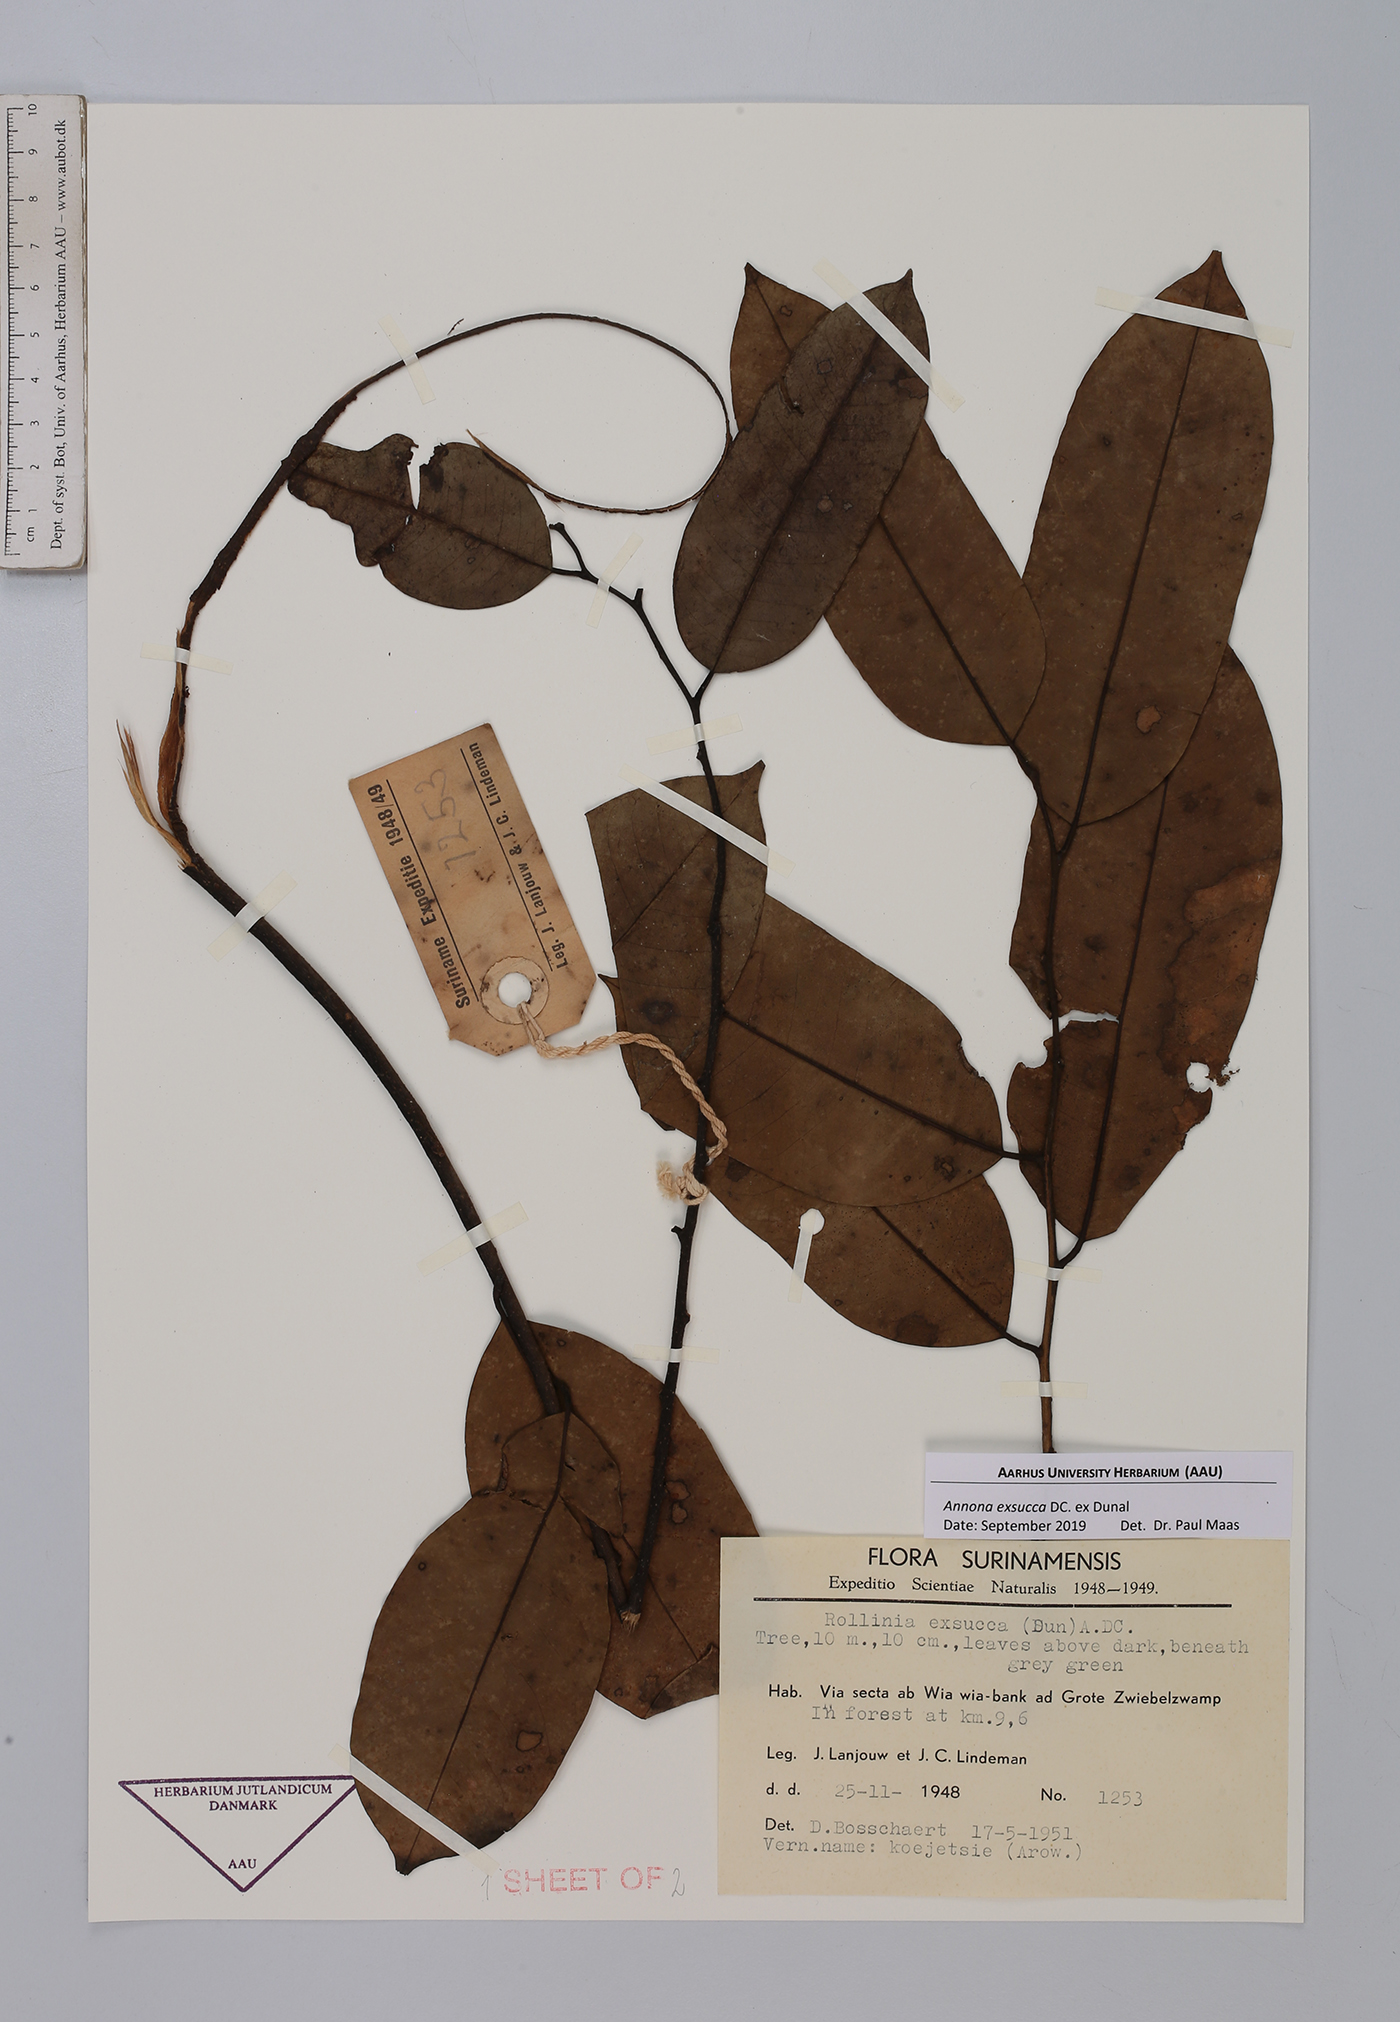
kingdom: Plantae
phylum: Tracheophyta
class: Magnoliopsida
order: Magnoliales
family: Annonaceae
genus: Annona
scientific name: Annona exsucca
